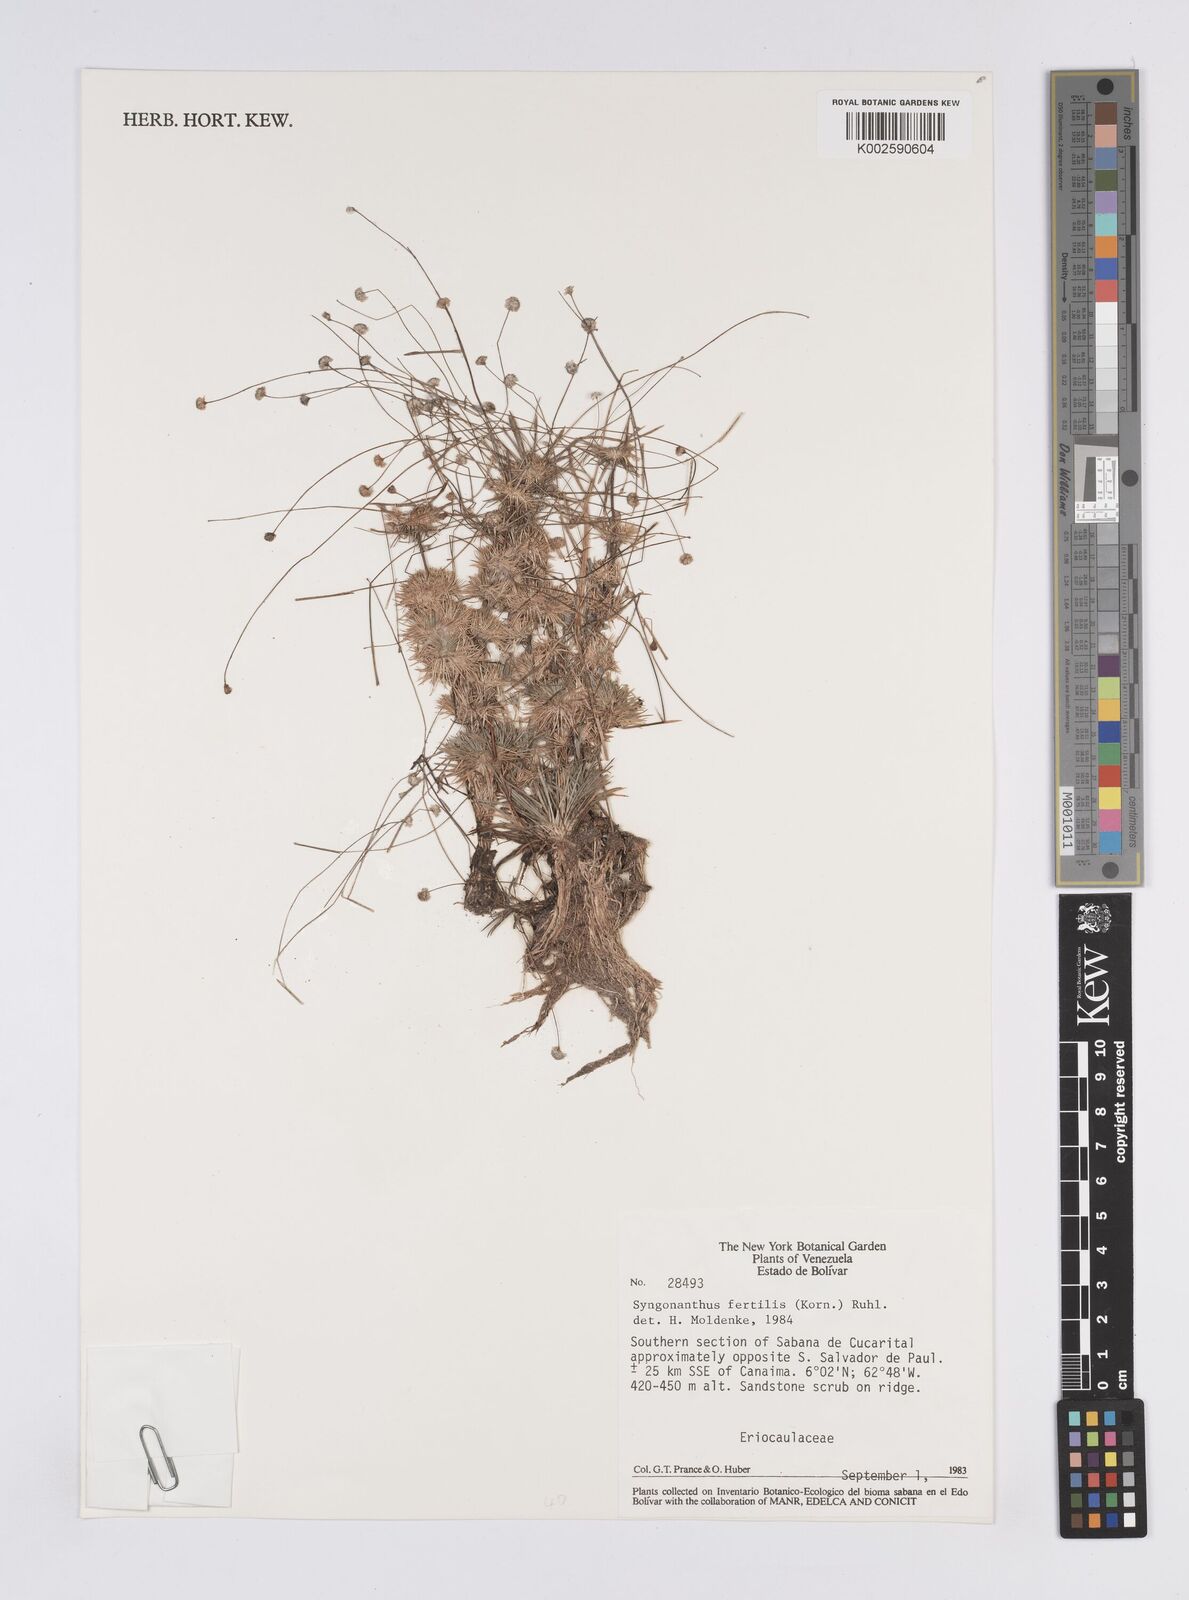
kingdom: Plantae
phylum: Tracheophyta
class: Liliopsida
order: Poales
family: Eriocaulaceae
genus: Syngonanthus
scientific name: Syngonanthus humboldtii
